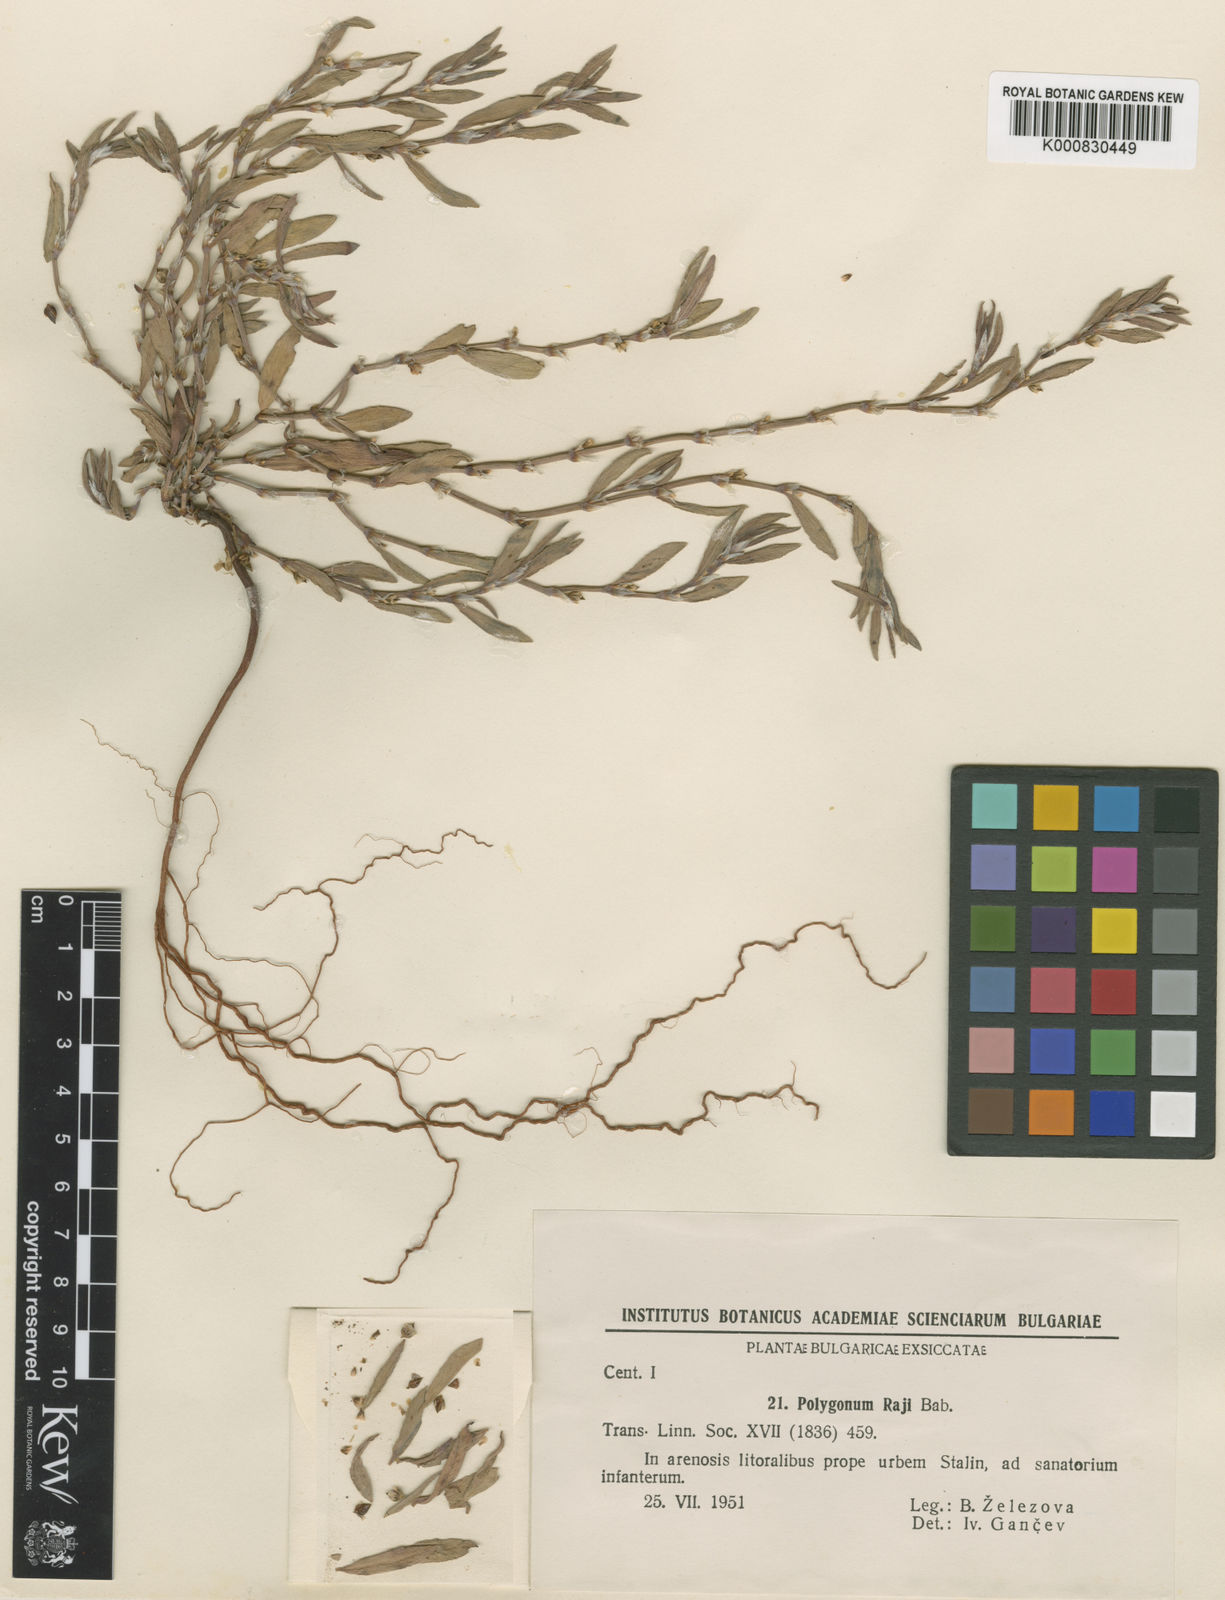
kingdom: Plantae
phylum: Tracheophyta
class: Magnoliopsida
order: Caryophyllales
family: Polygonaceae
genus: Polygonum
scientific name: Polygonum mesembricum
